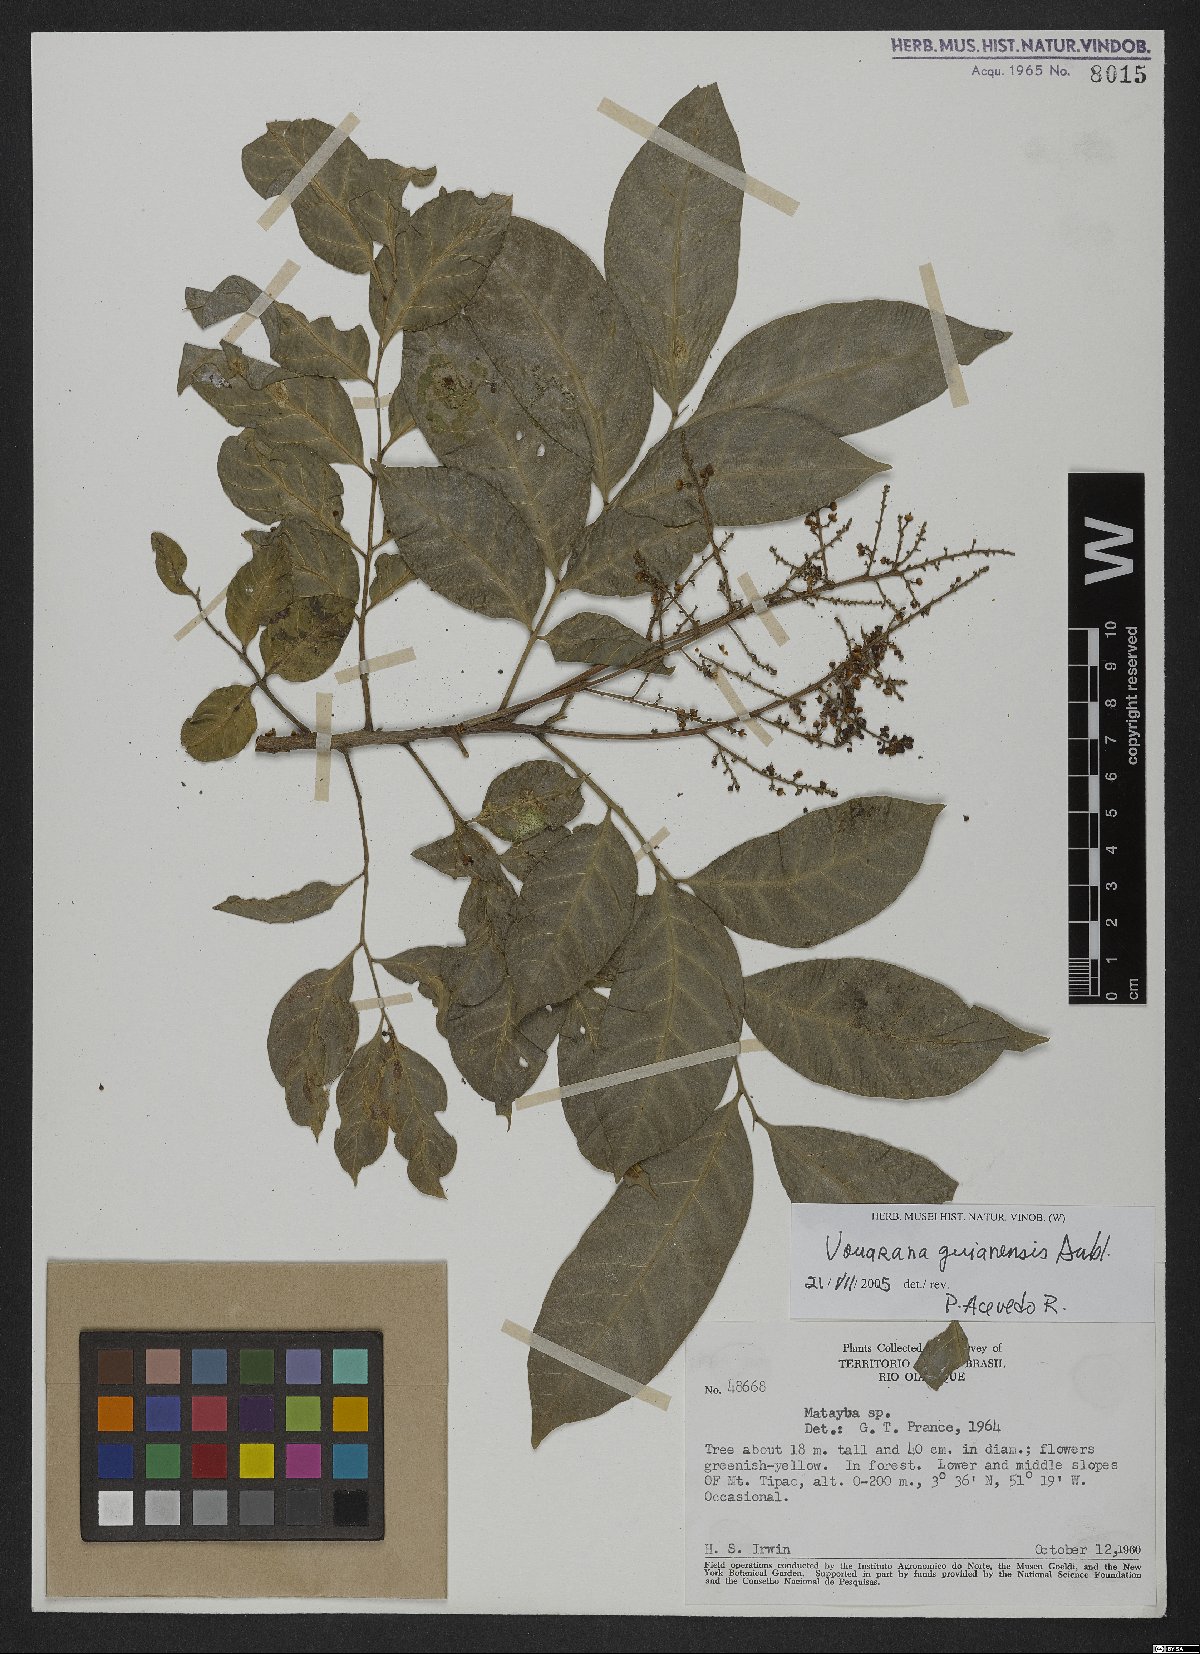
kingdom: Plantae
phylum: Tracheophyta
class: Magnoliopsida
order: Sapindales
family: Sapindaceae
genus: Vouarana
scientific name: Vouarana guianensis
